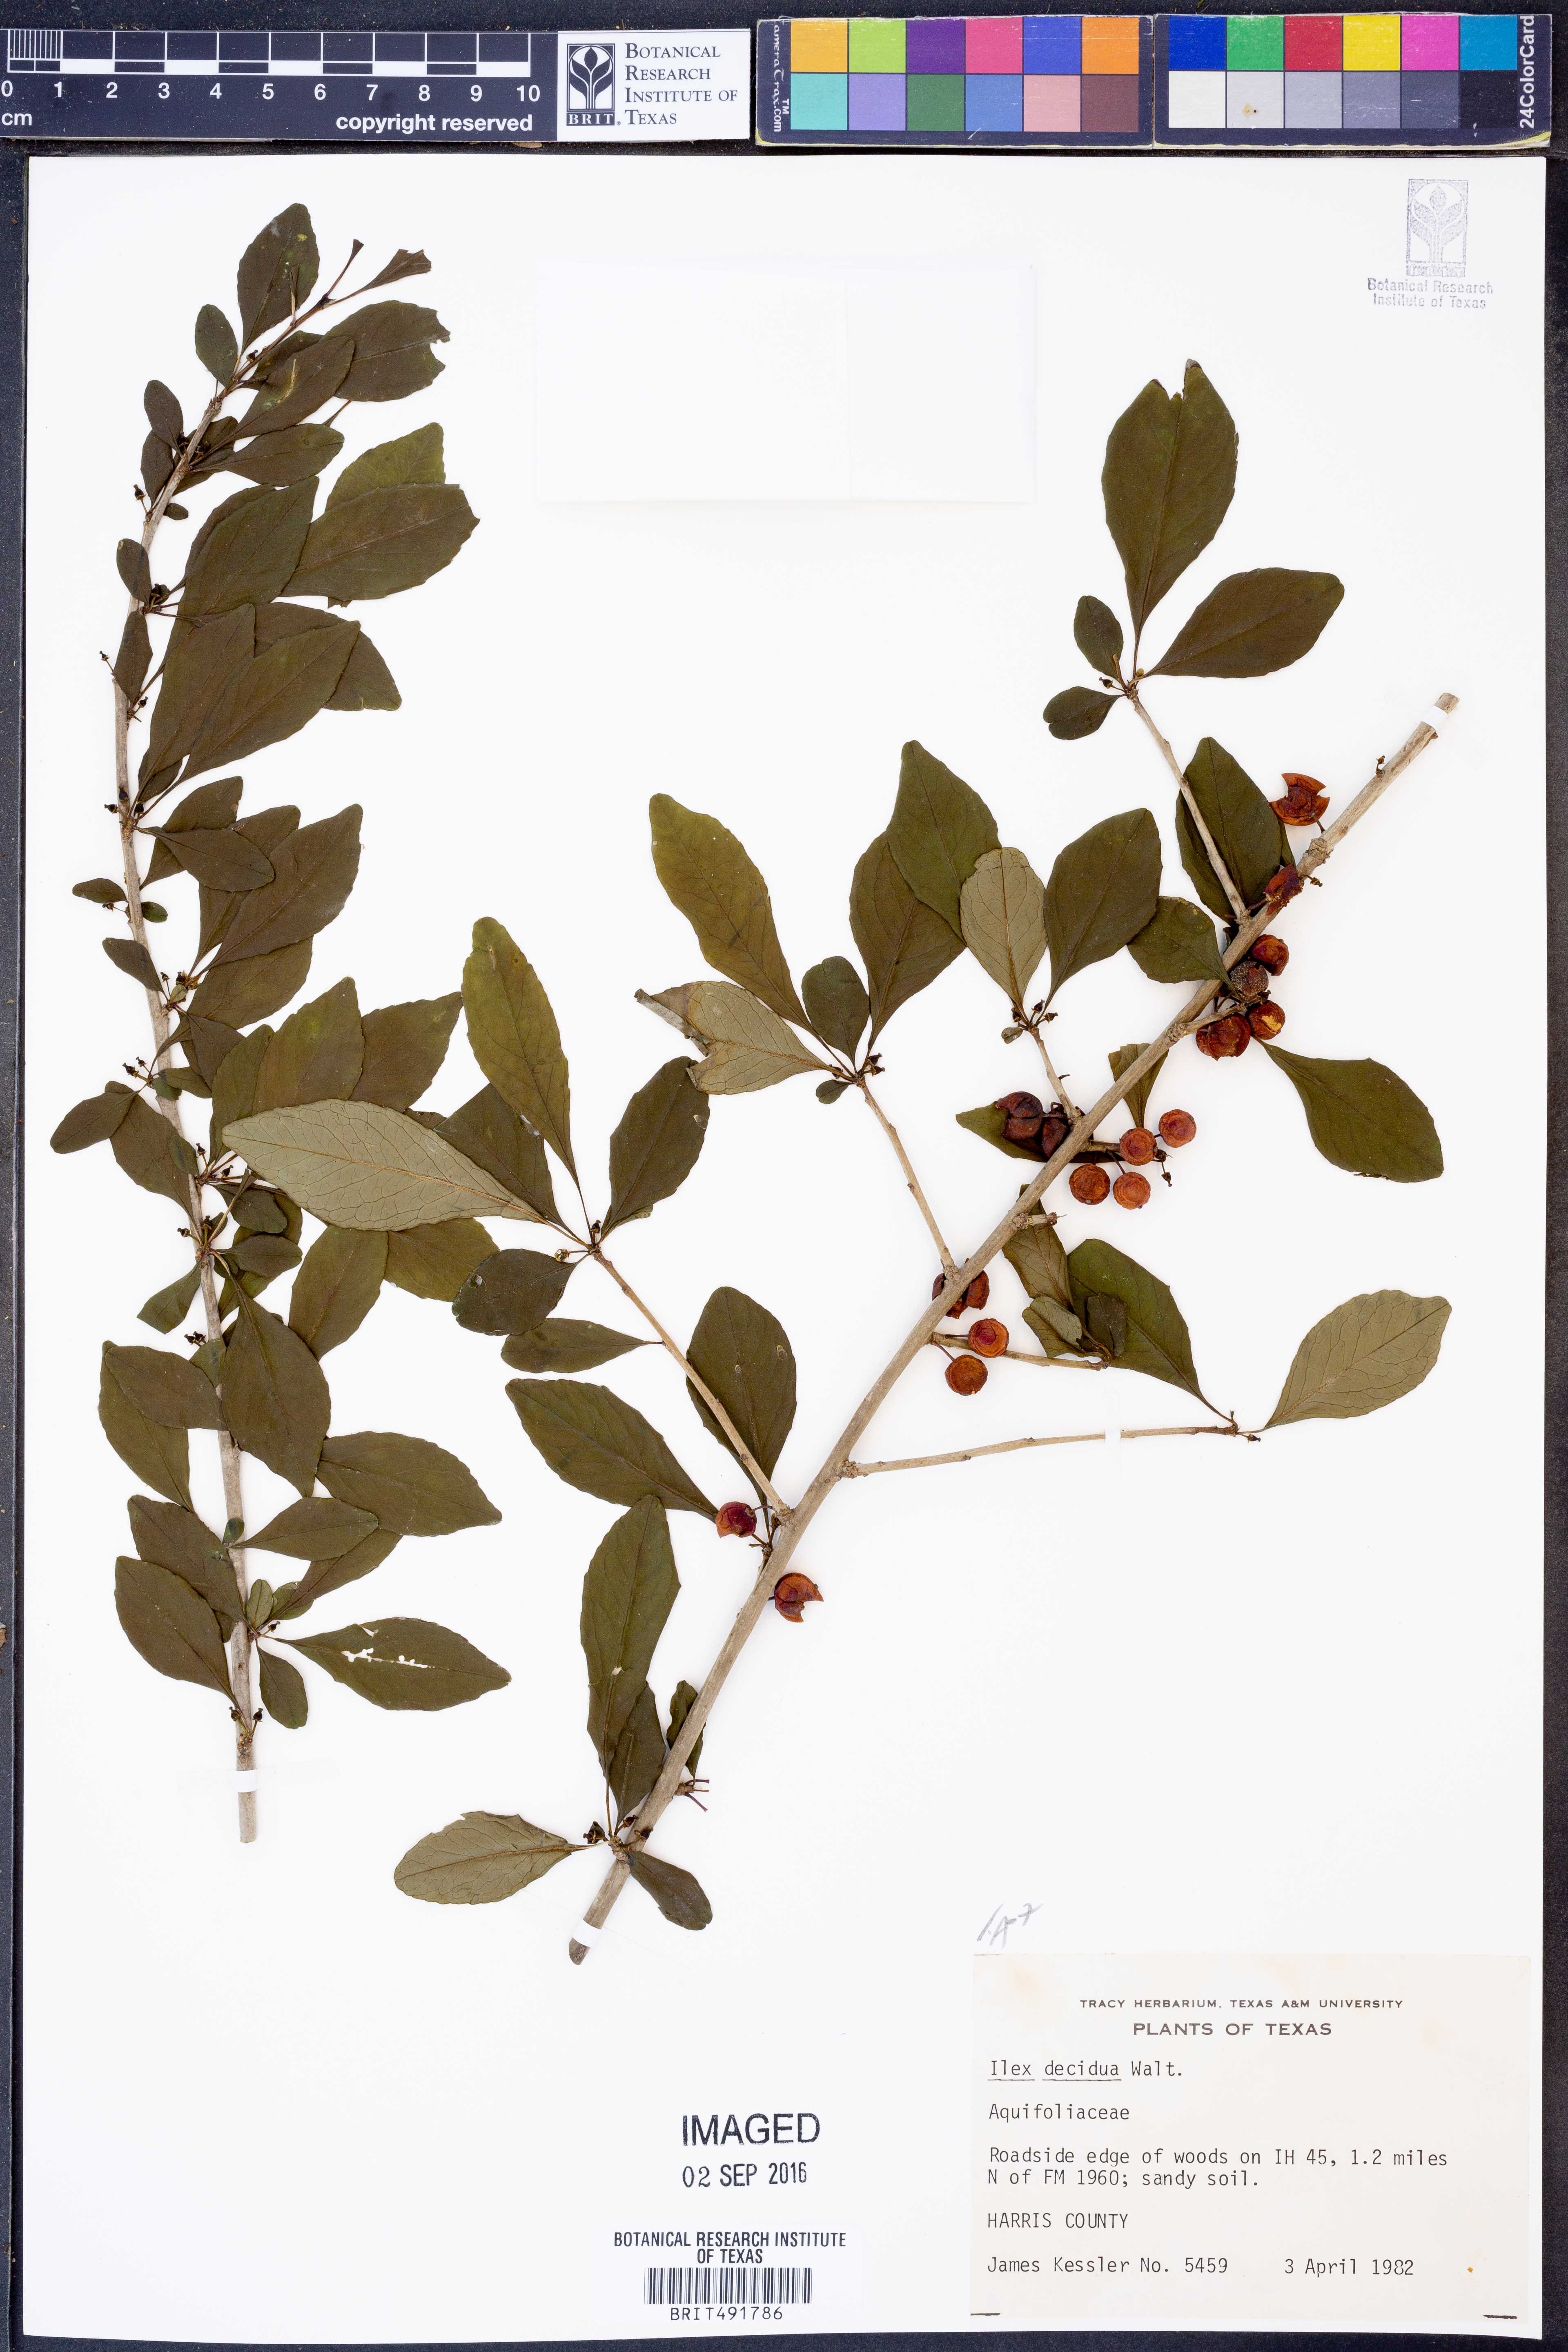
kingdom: Plantae
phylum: Tracheophyta
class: Magnoliopsida
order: Aquifoliales
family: Aquifoliaceae
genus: Ilex
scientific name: Ilex decidua
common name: Possum-haw
